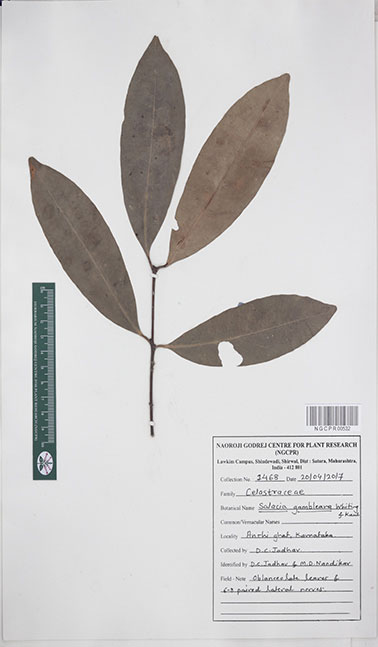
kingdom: Plantae
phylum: Tracheophyta
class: Magnoliopsida
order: Celastrales
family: Celastraceae
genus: Salacia
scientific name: Salacia gambleana
